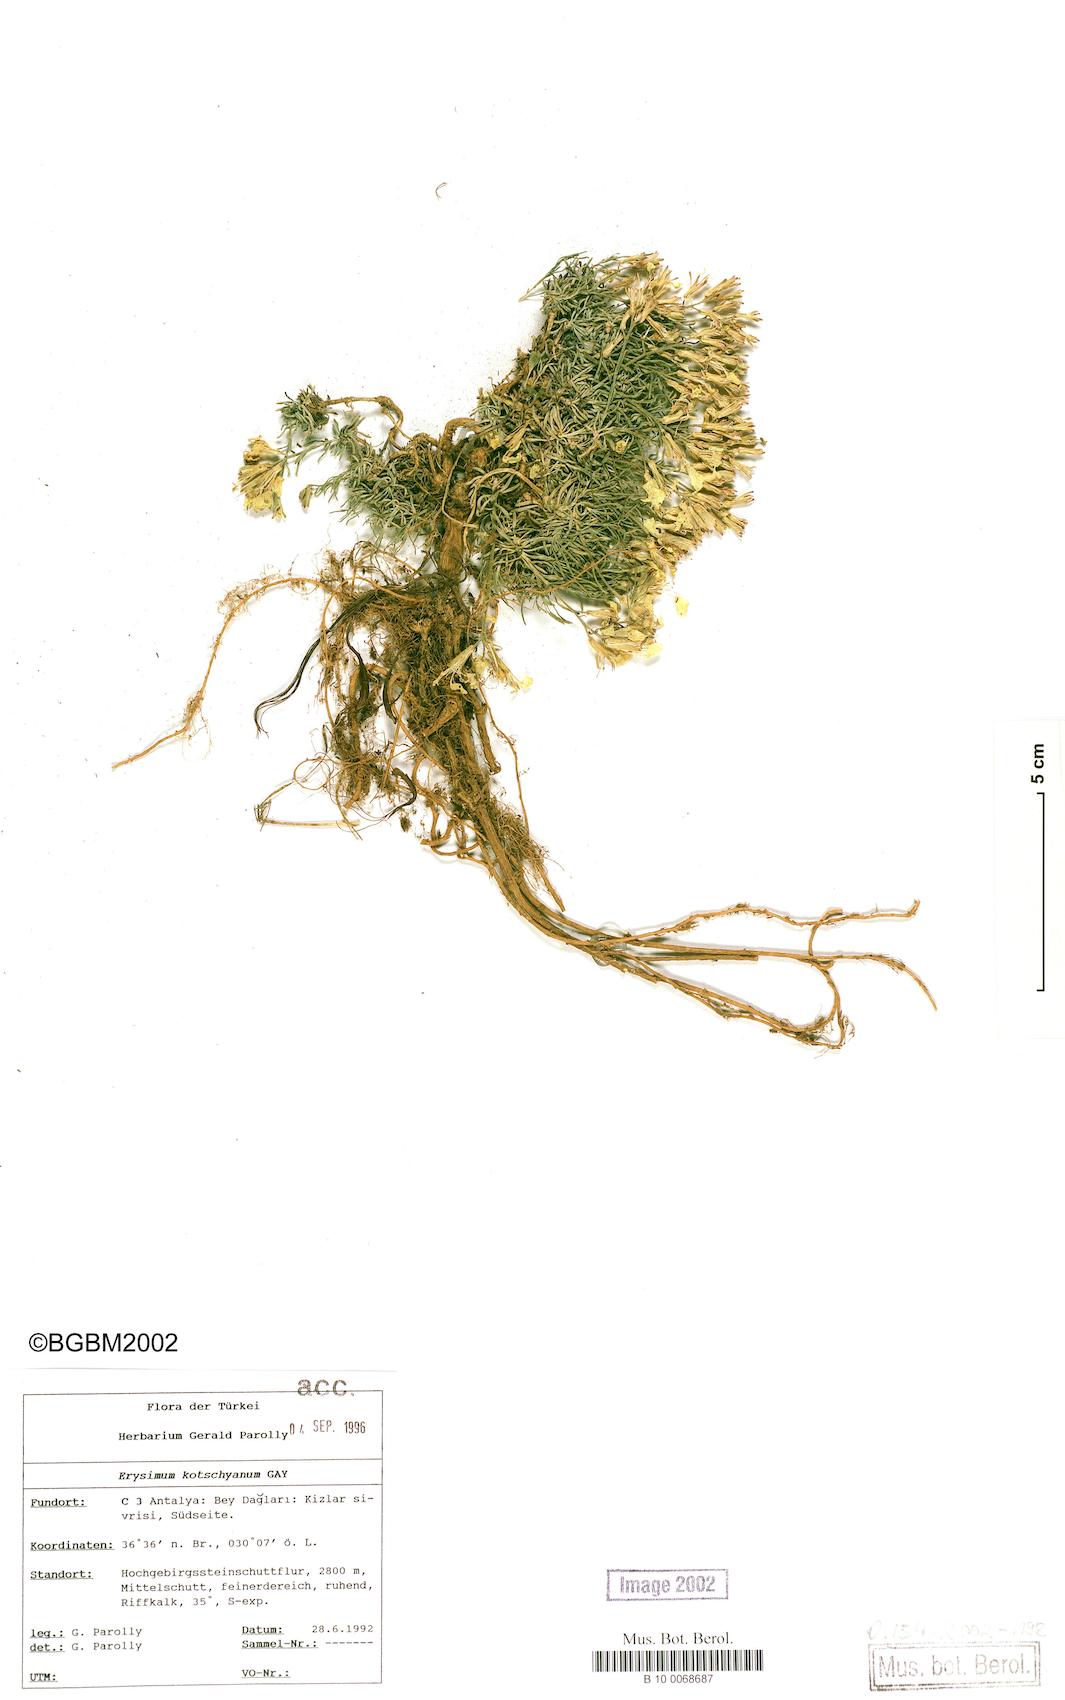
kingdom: Plantae
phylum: Tracheophyta
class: Magnoliopsida
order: Brassicales
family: Brassicaceae
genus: Erysimum
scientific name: Erysimum kotschyanum
